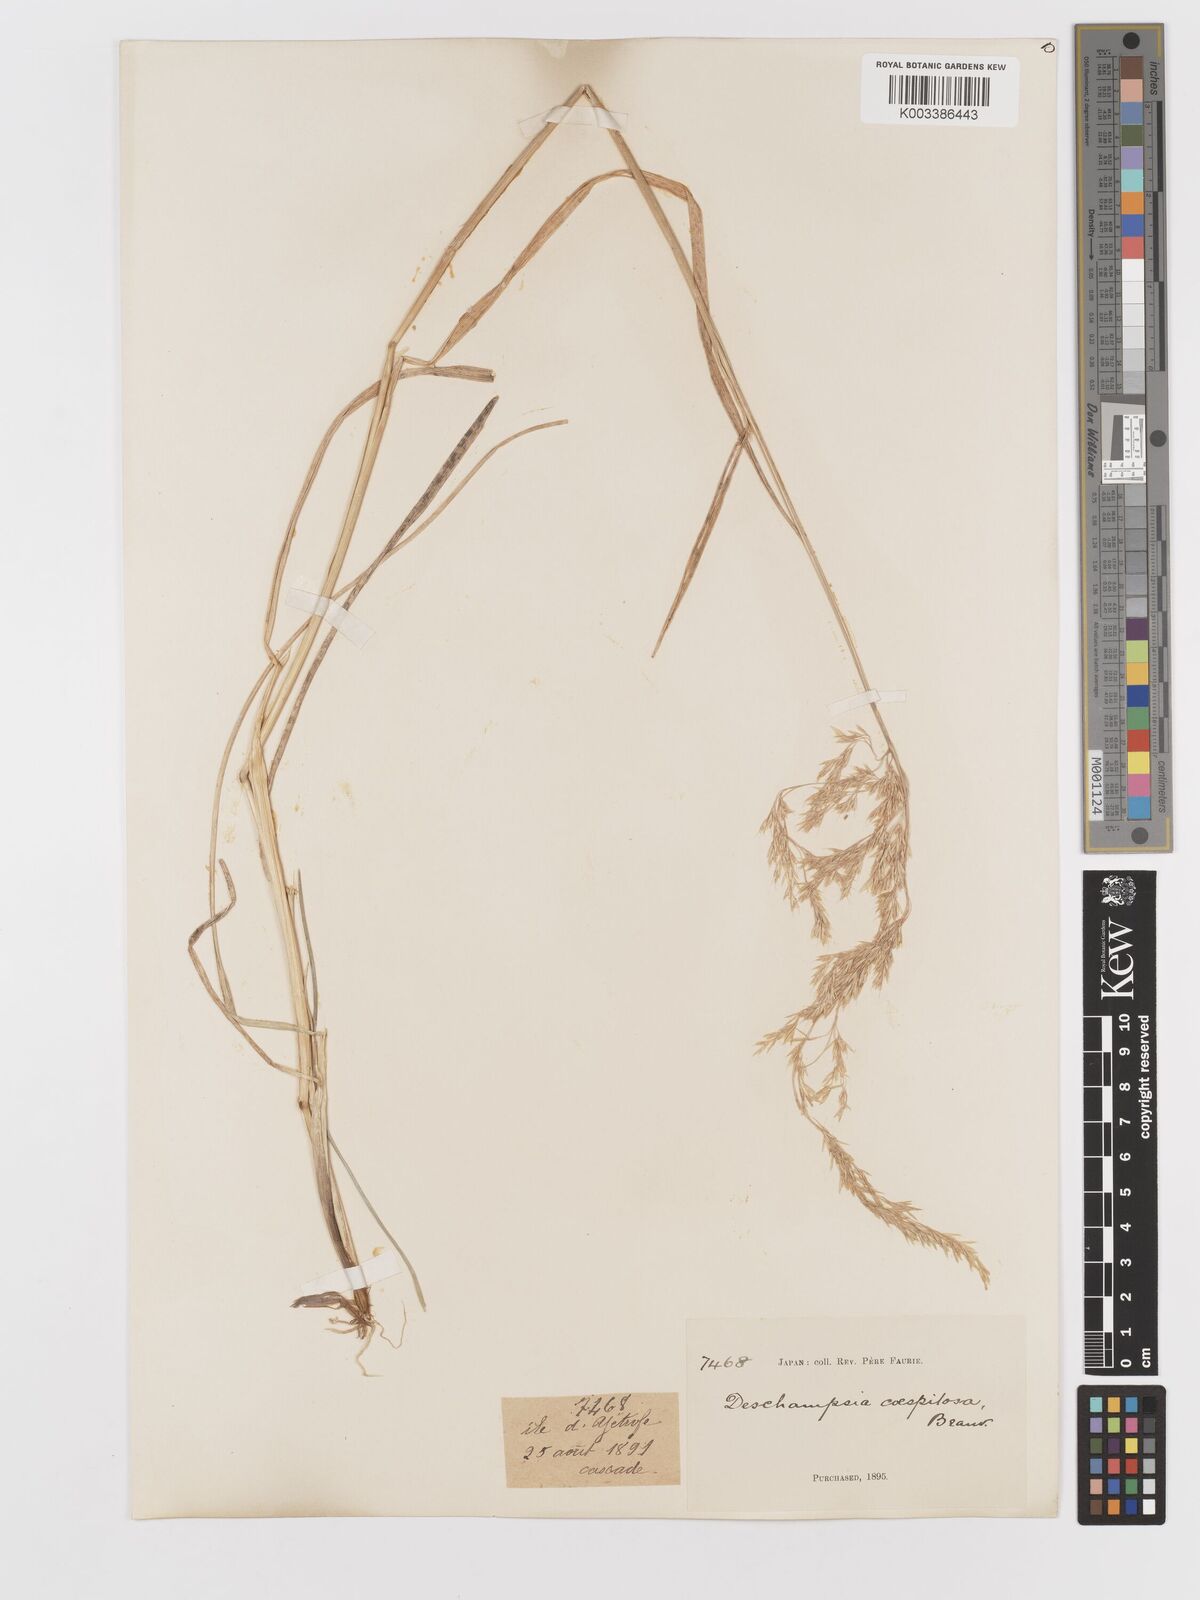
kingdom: Plantae
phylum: Tracheophyta
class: Liliopsida
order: Poales
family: Poaceae
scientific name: Poaceae
